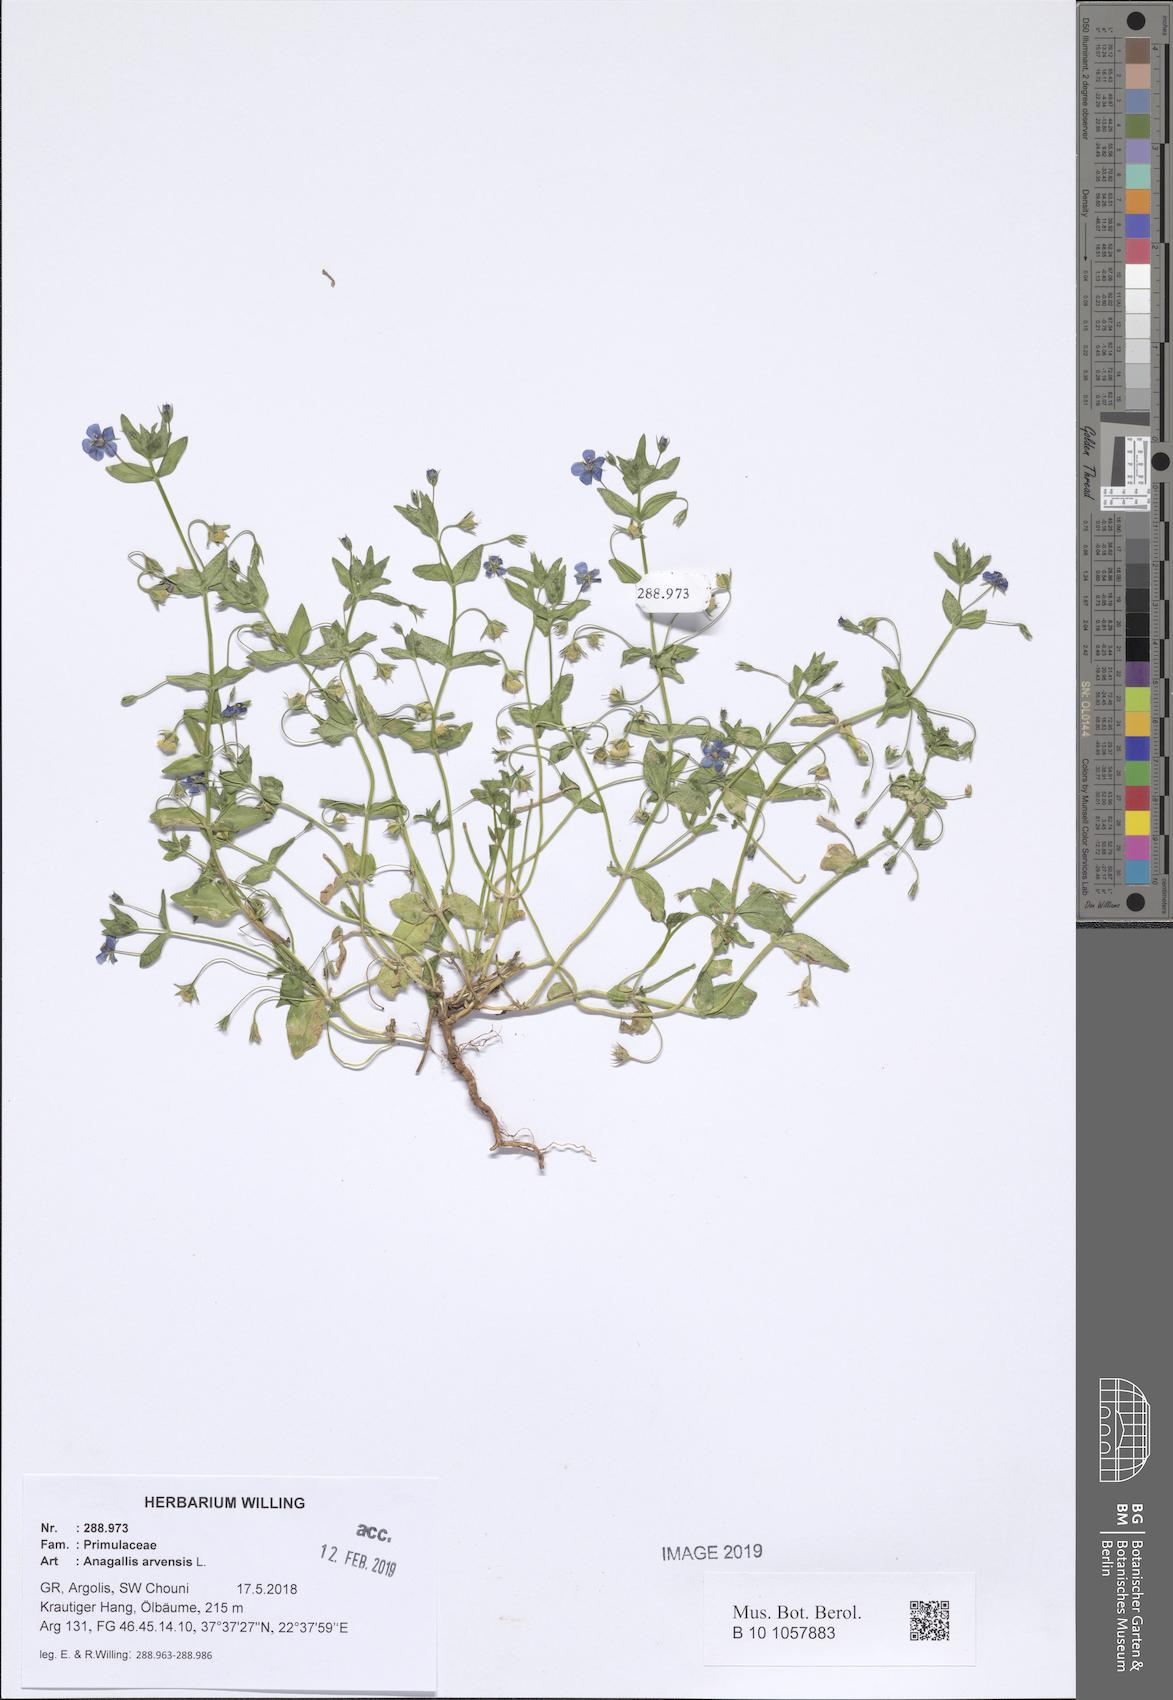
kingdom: Plantae
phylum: Tracheophyta
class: Magnoliopsida
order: Ericales
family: Primulaceae
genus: Lysimachia
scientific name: Lysimachia arvensis
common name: Scarlet pimpernel
